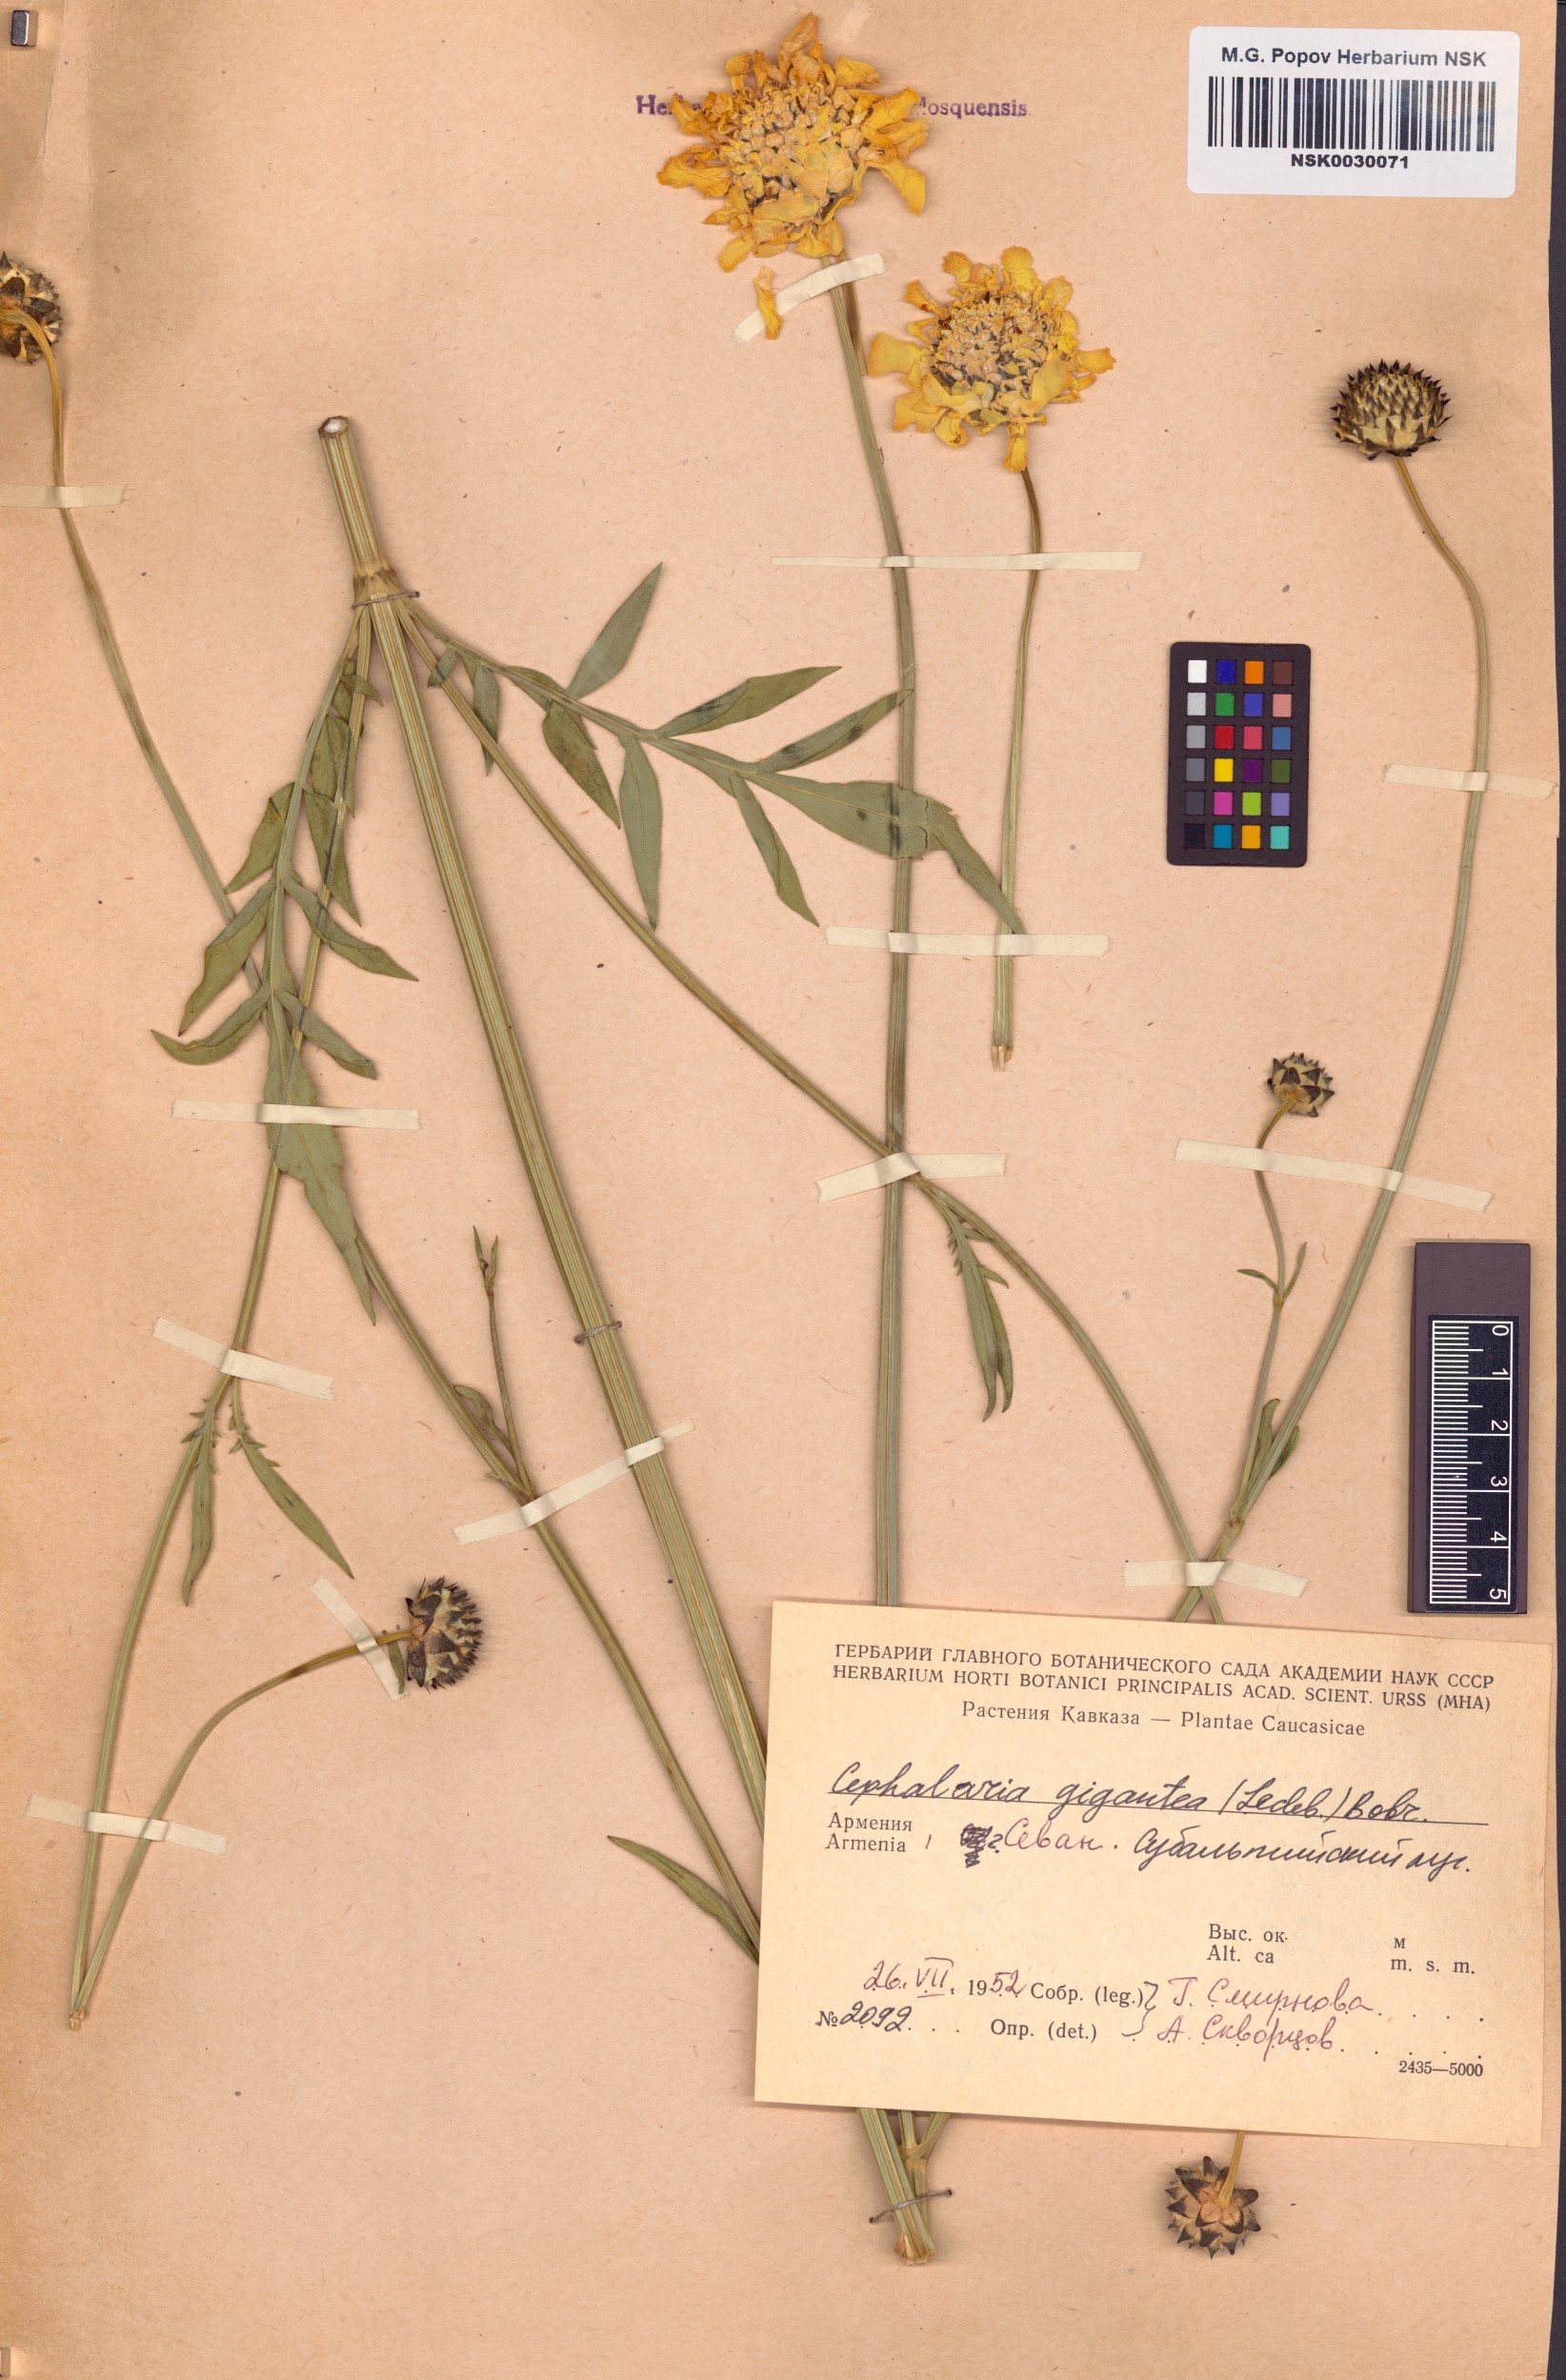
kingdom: Plantae
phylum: Tracheophyta
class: Magnoliopsida
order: Dipsacales
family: Caprifoliaceae
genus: Cephalaria
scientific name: Cephalaria gigantea
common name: Tatarian cephalaria
